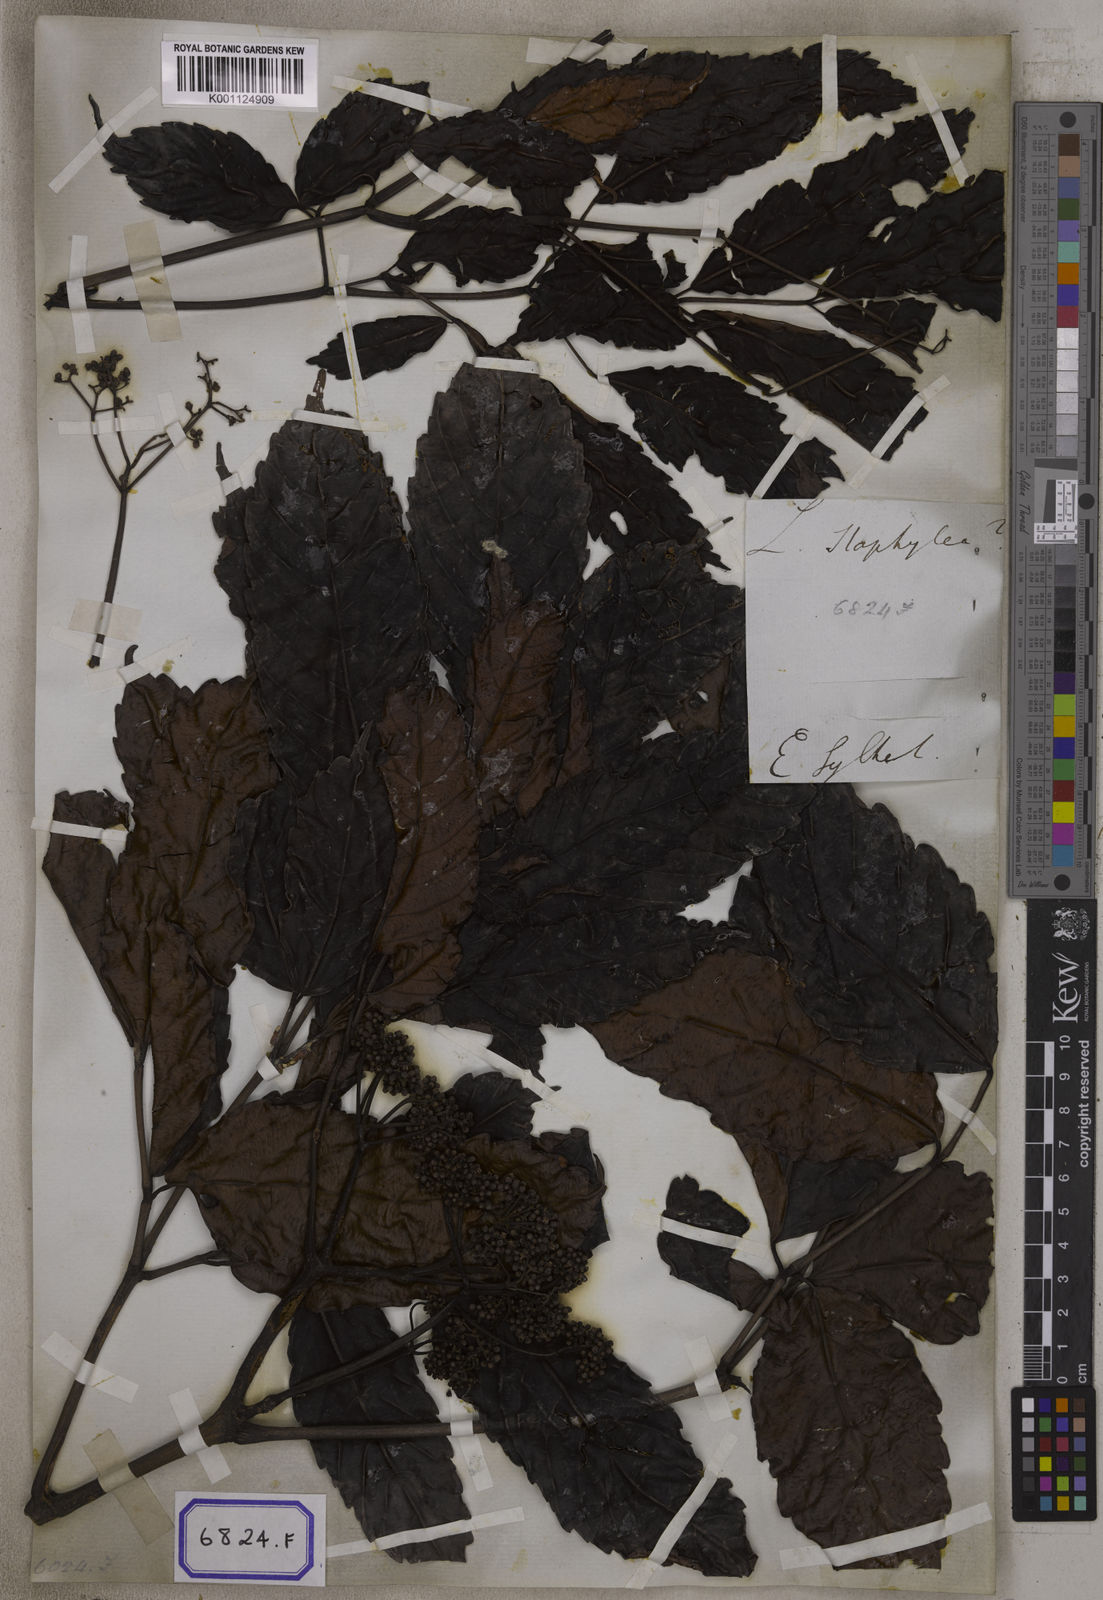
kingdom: Plantae
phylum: Tracheophyta
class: Magnoliopsida
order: Vitales
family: Vitaceae
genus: Leea
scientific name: Leea
